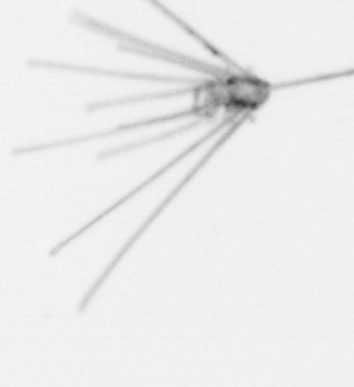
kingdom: Animalia
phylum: Echinodermata
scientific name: Echinodermata
